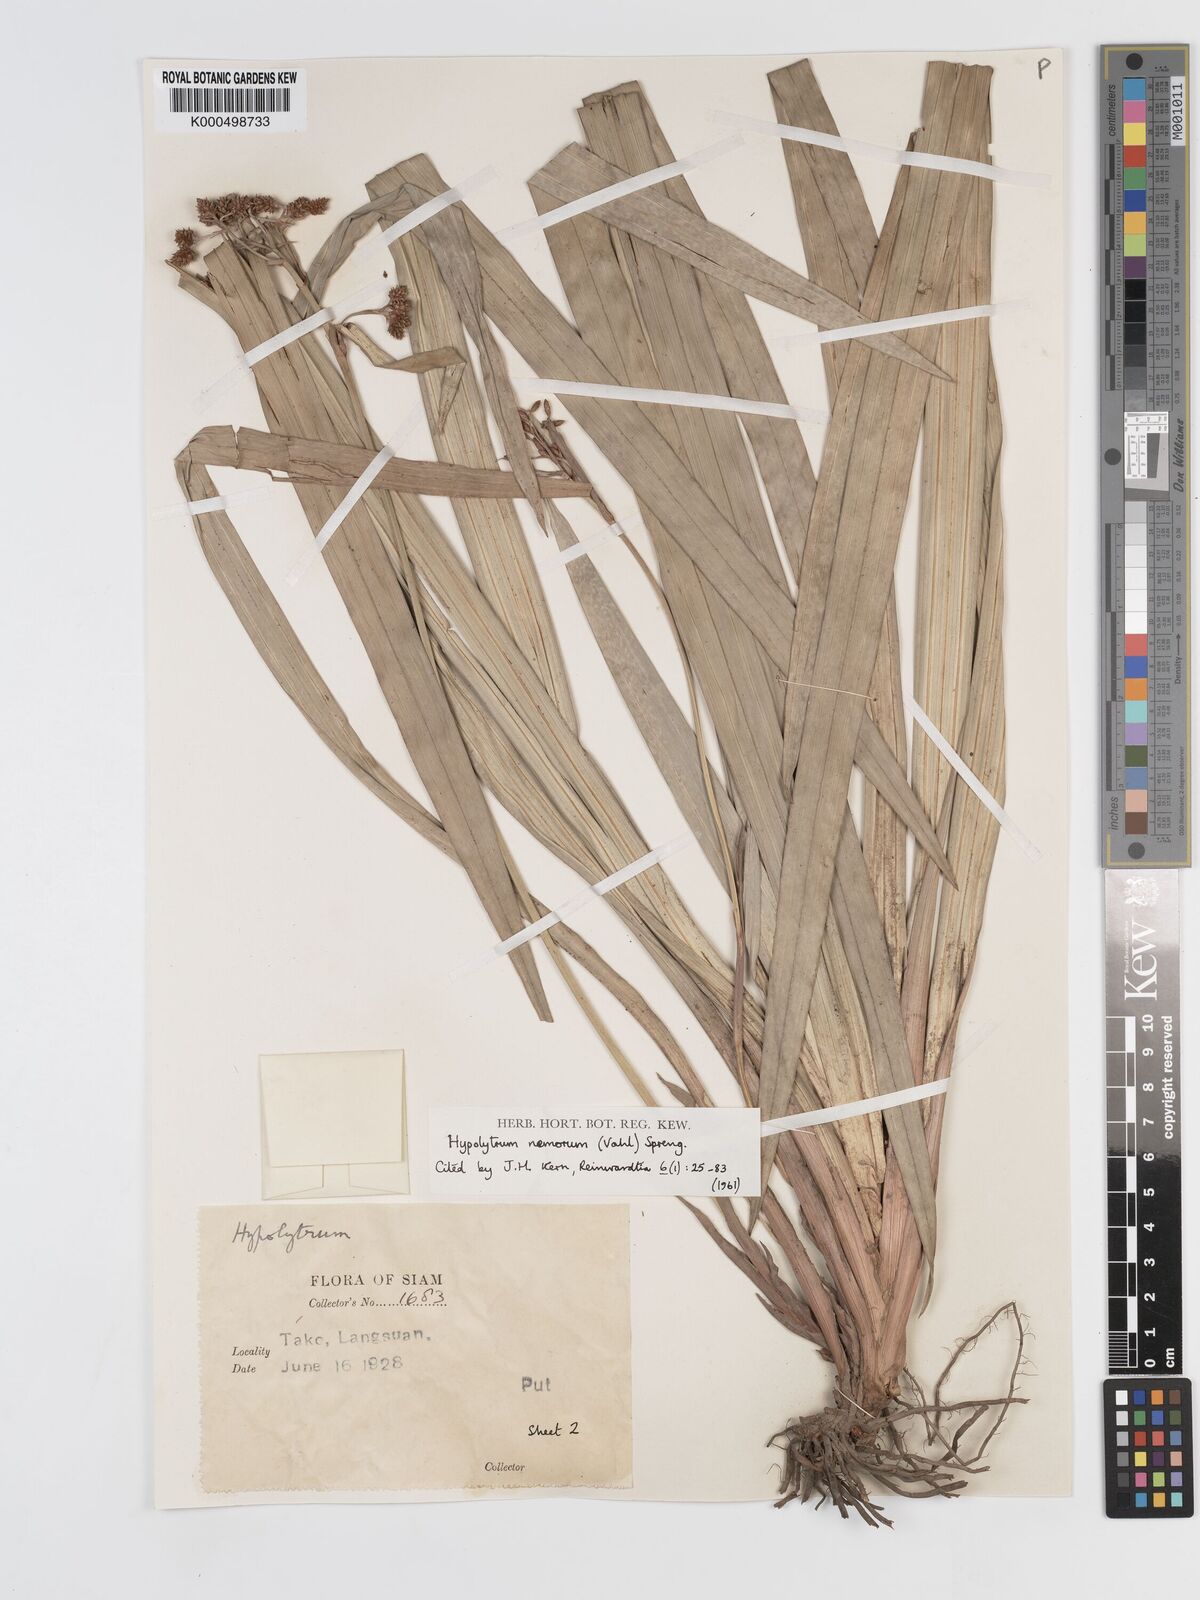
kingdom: Plantae
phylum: Tracheophyta
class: Liliopsida
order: Poales
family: Cyperaceae
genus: Hypolytrum
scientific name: Hypolytrum nemorum
